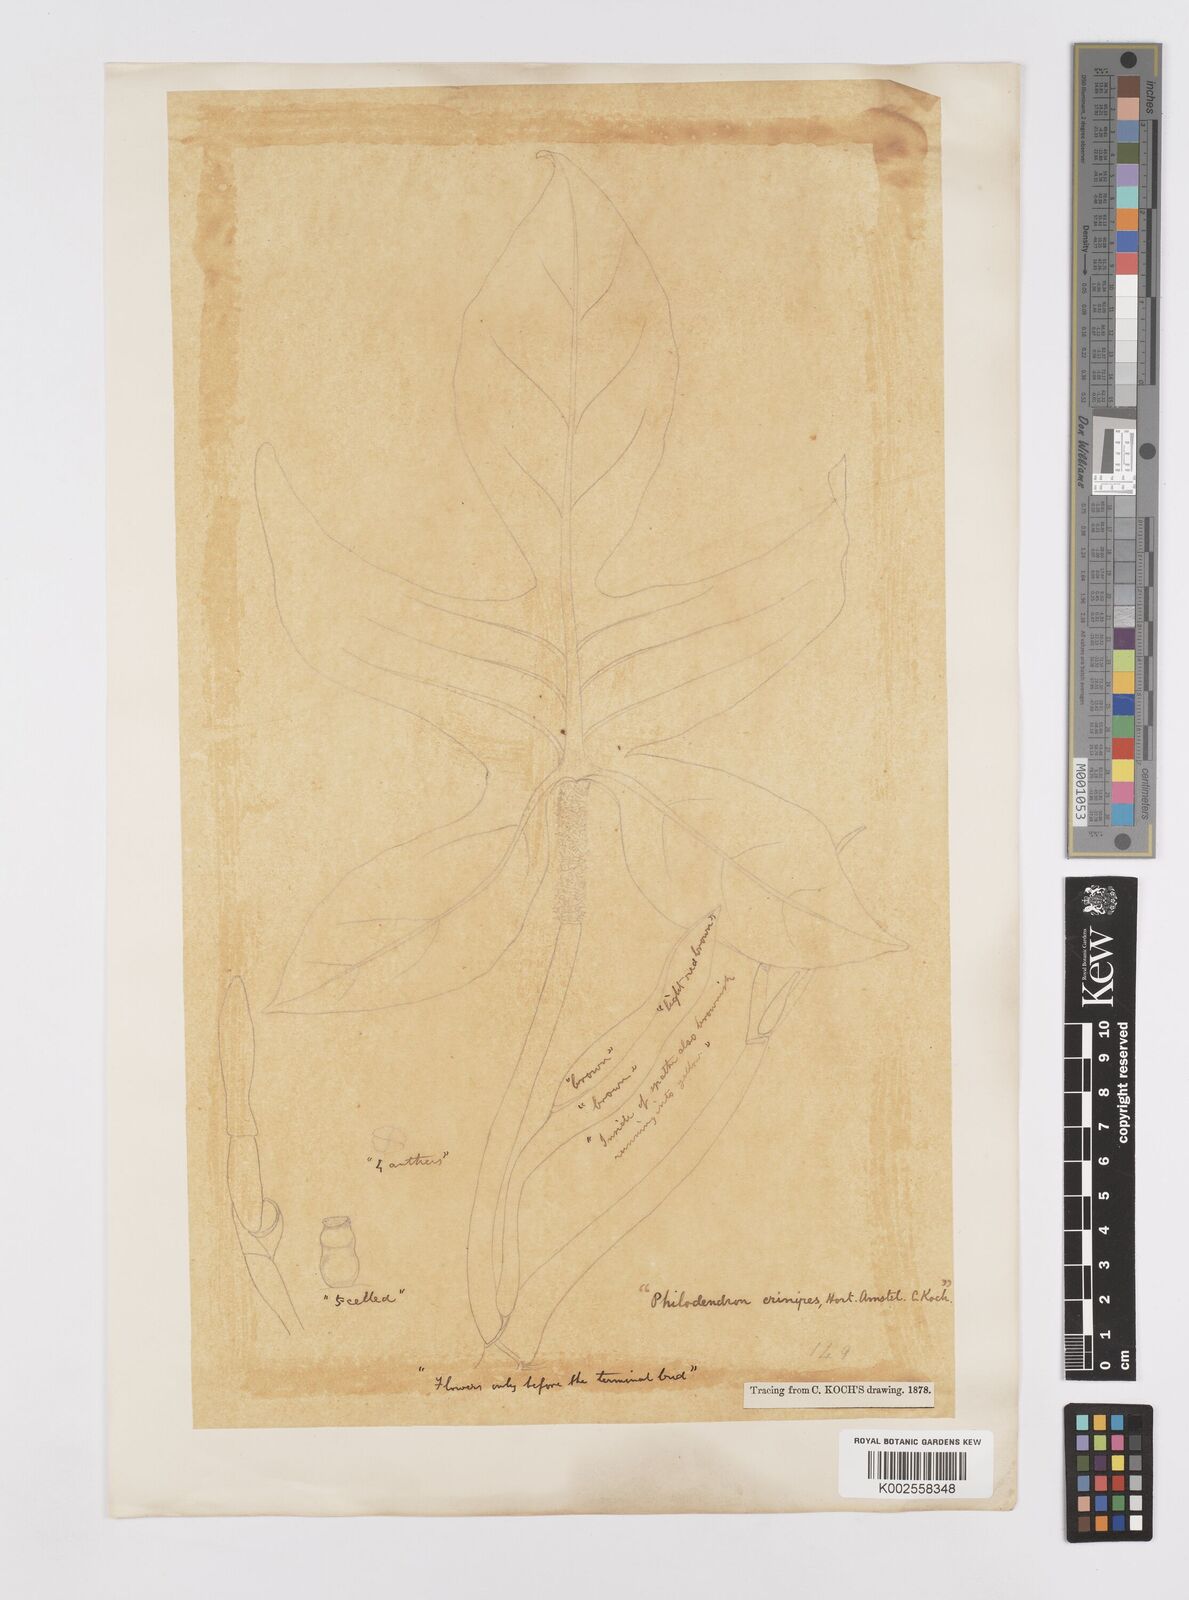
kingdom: Plantae
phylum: Tracheophyta
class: Liliopsida
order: Alismatales
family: Araceae
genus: Philodendron
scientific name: Philodendron squamiferum
